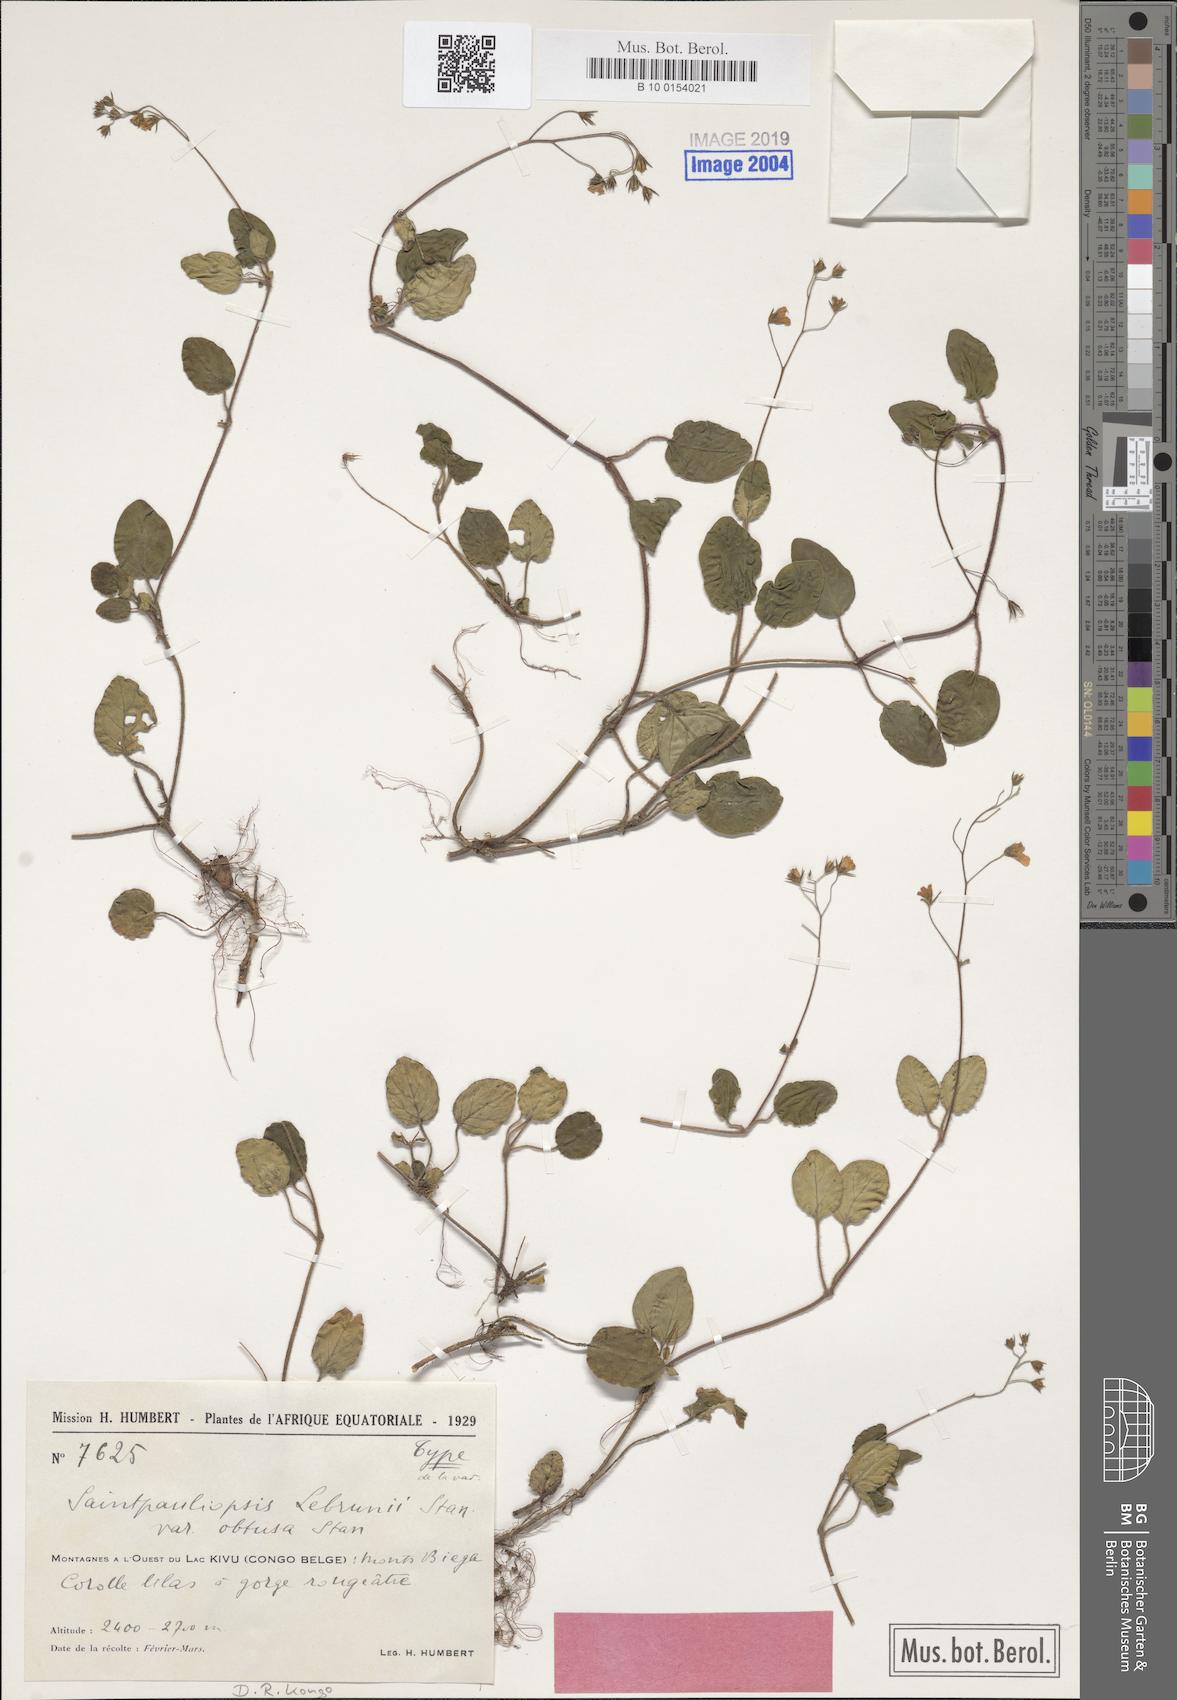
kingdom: Plantae
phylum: Tracheophyta
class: Magnoliopsida
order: Lamiales
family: Acanthaceae
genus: Saintpauliopsis
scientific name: Saintpauliopsis lebrunii
